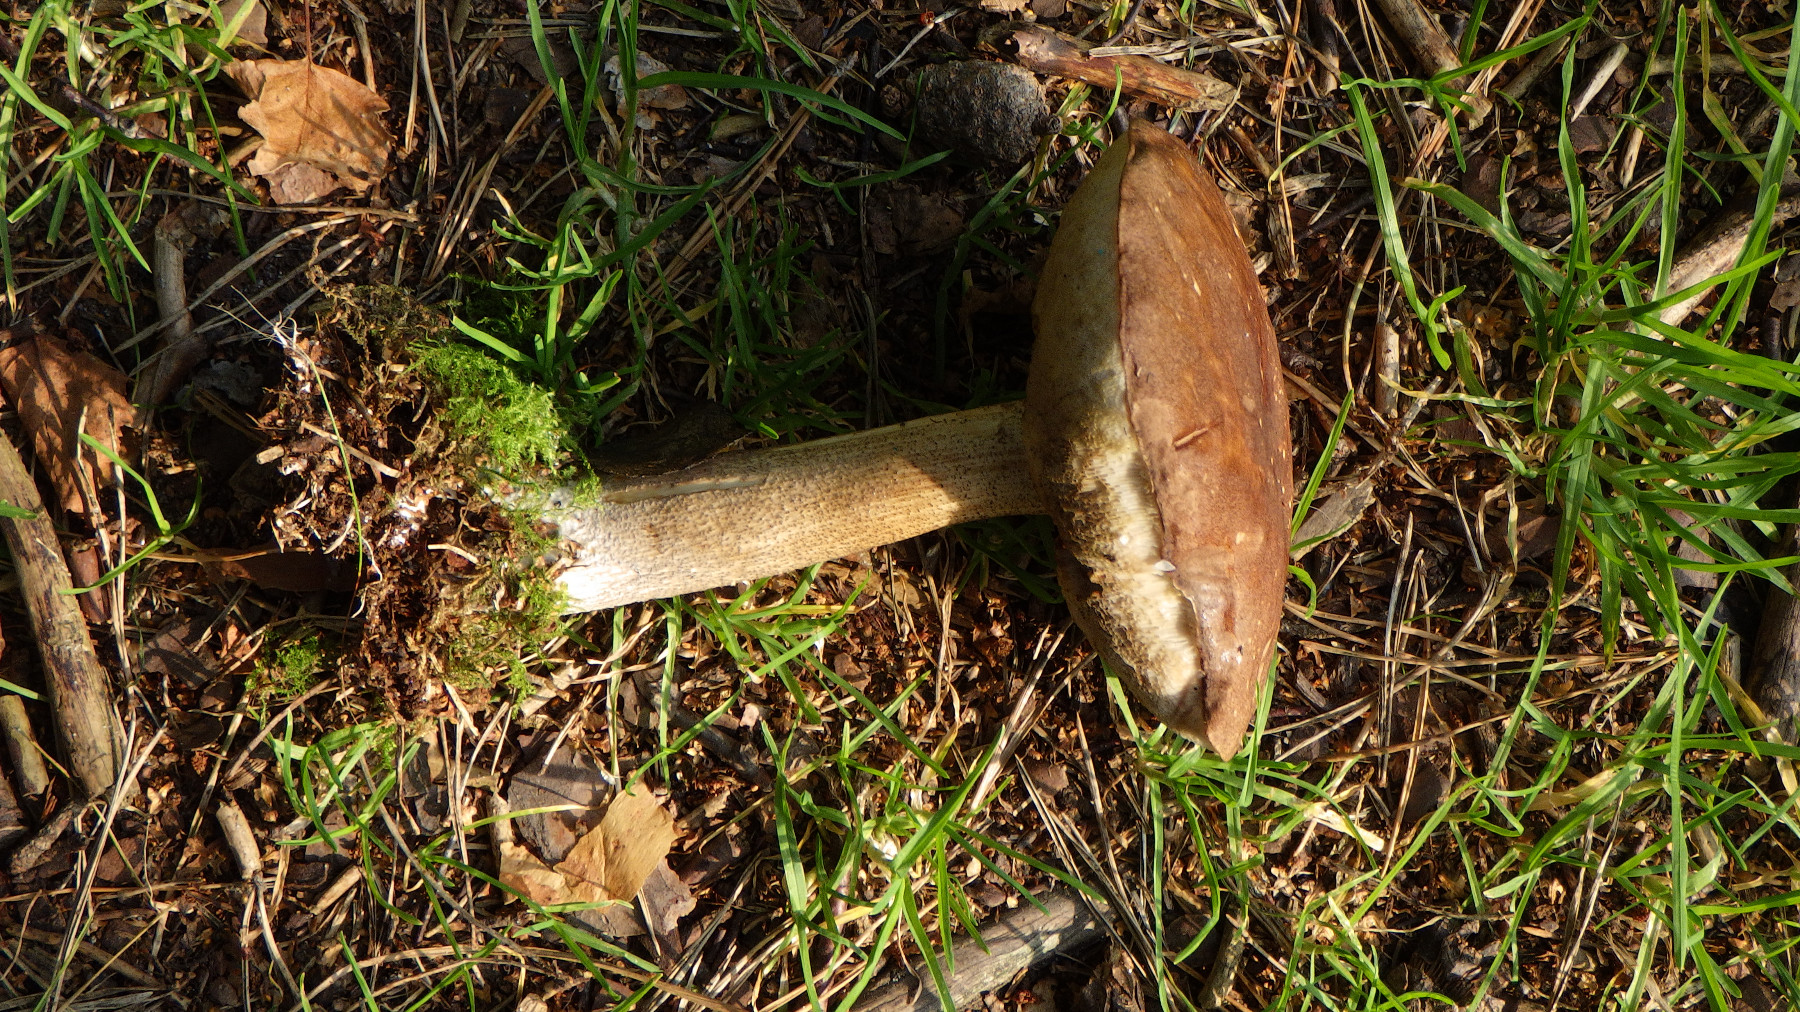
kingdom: Fungi
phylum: Basidiomycota
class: Agaricomycetes
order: Boletales
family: Boletaceae
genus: Leccinum
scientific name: Leccinum
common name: skælrørhat
